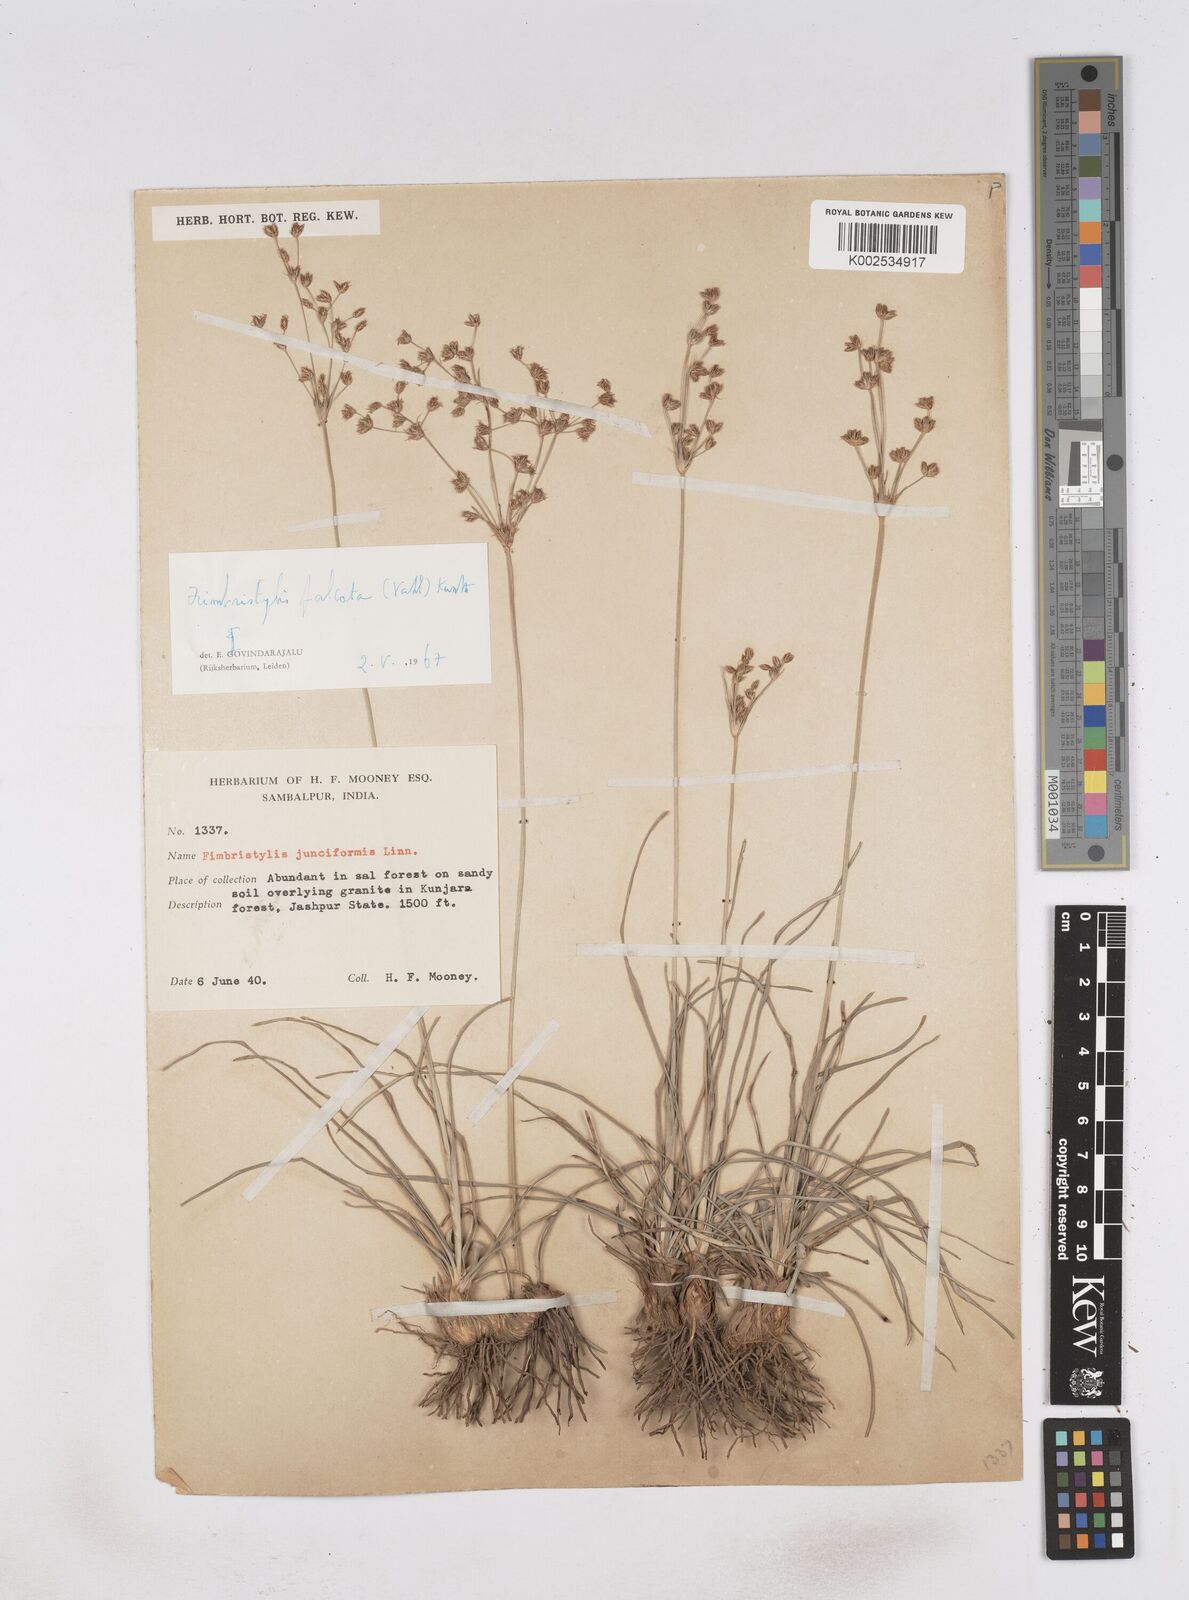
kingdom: Plantae
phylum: Tracheophyta
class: Liliopsida
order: Poales
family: Cyperaceae
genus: Fimbristylis
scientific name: Fimbristylis falcata
